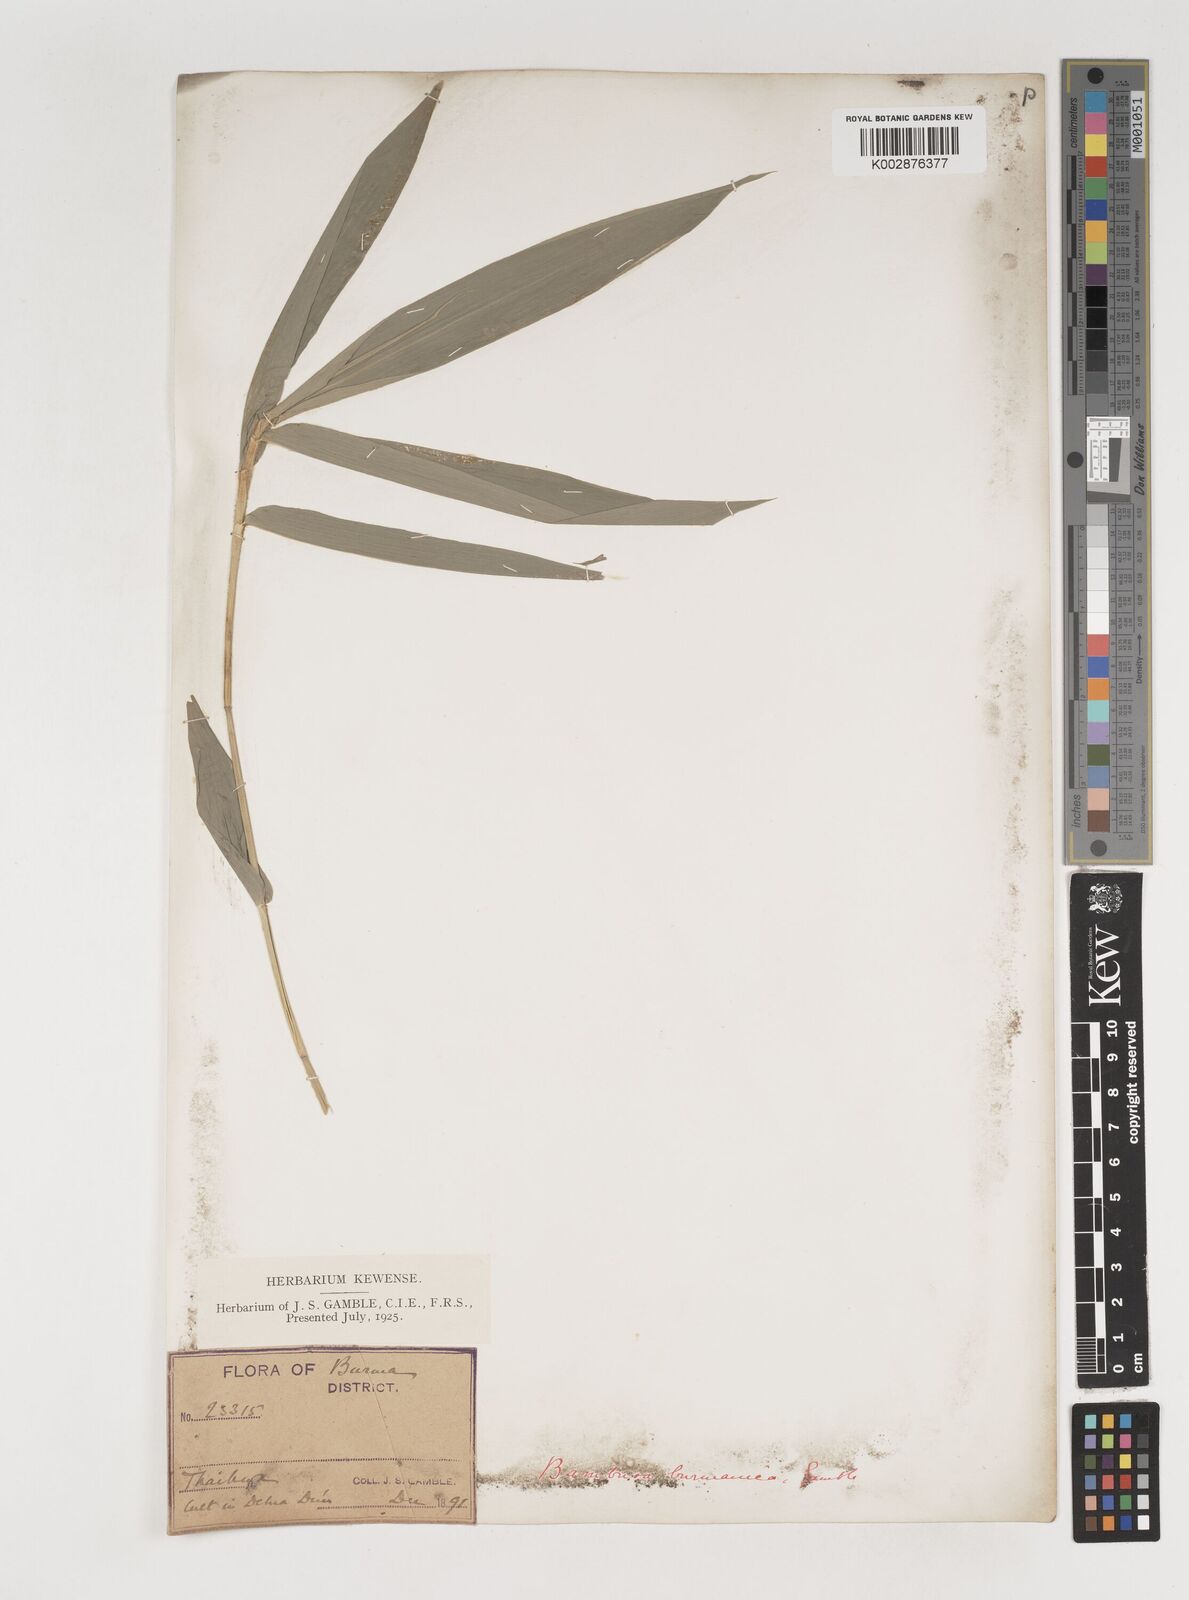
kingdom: Plantae
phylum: Tracheophyta
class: Liliopsida
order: Poales
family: Poaceae
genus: Bambusa
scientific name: Bambusa burmanica
